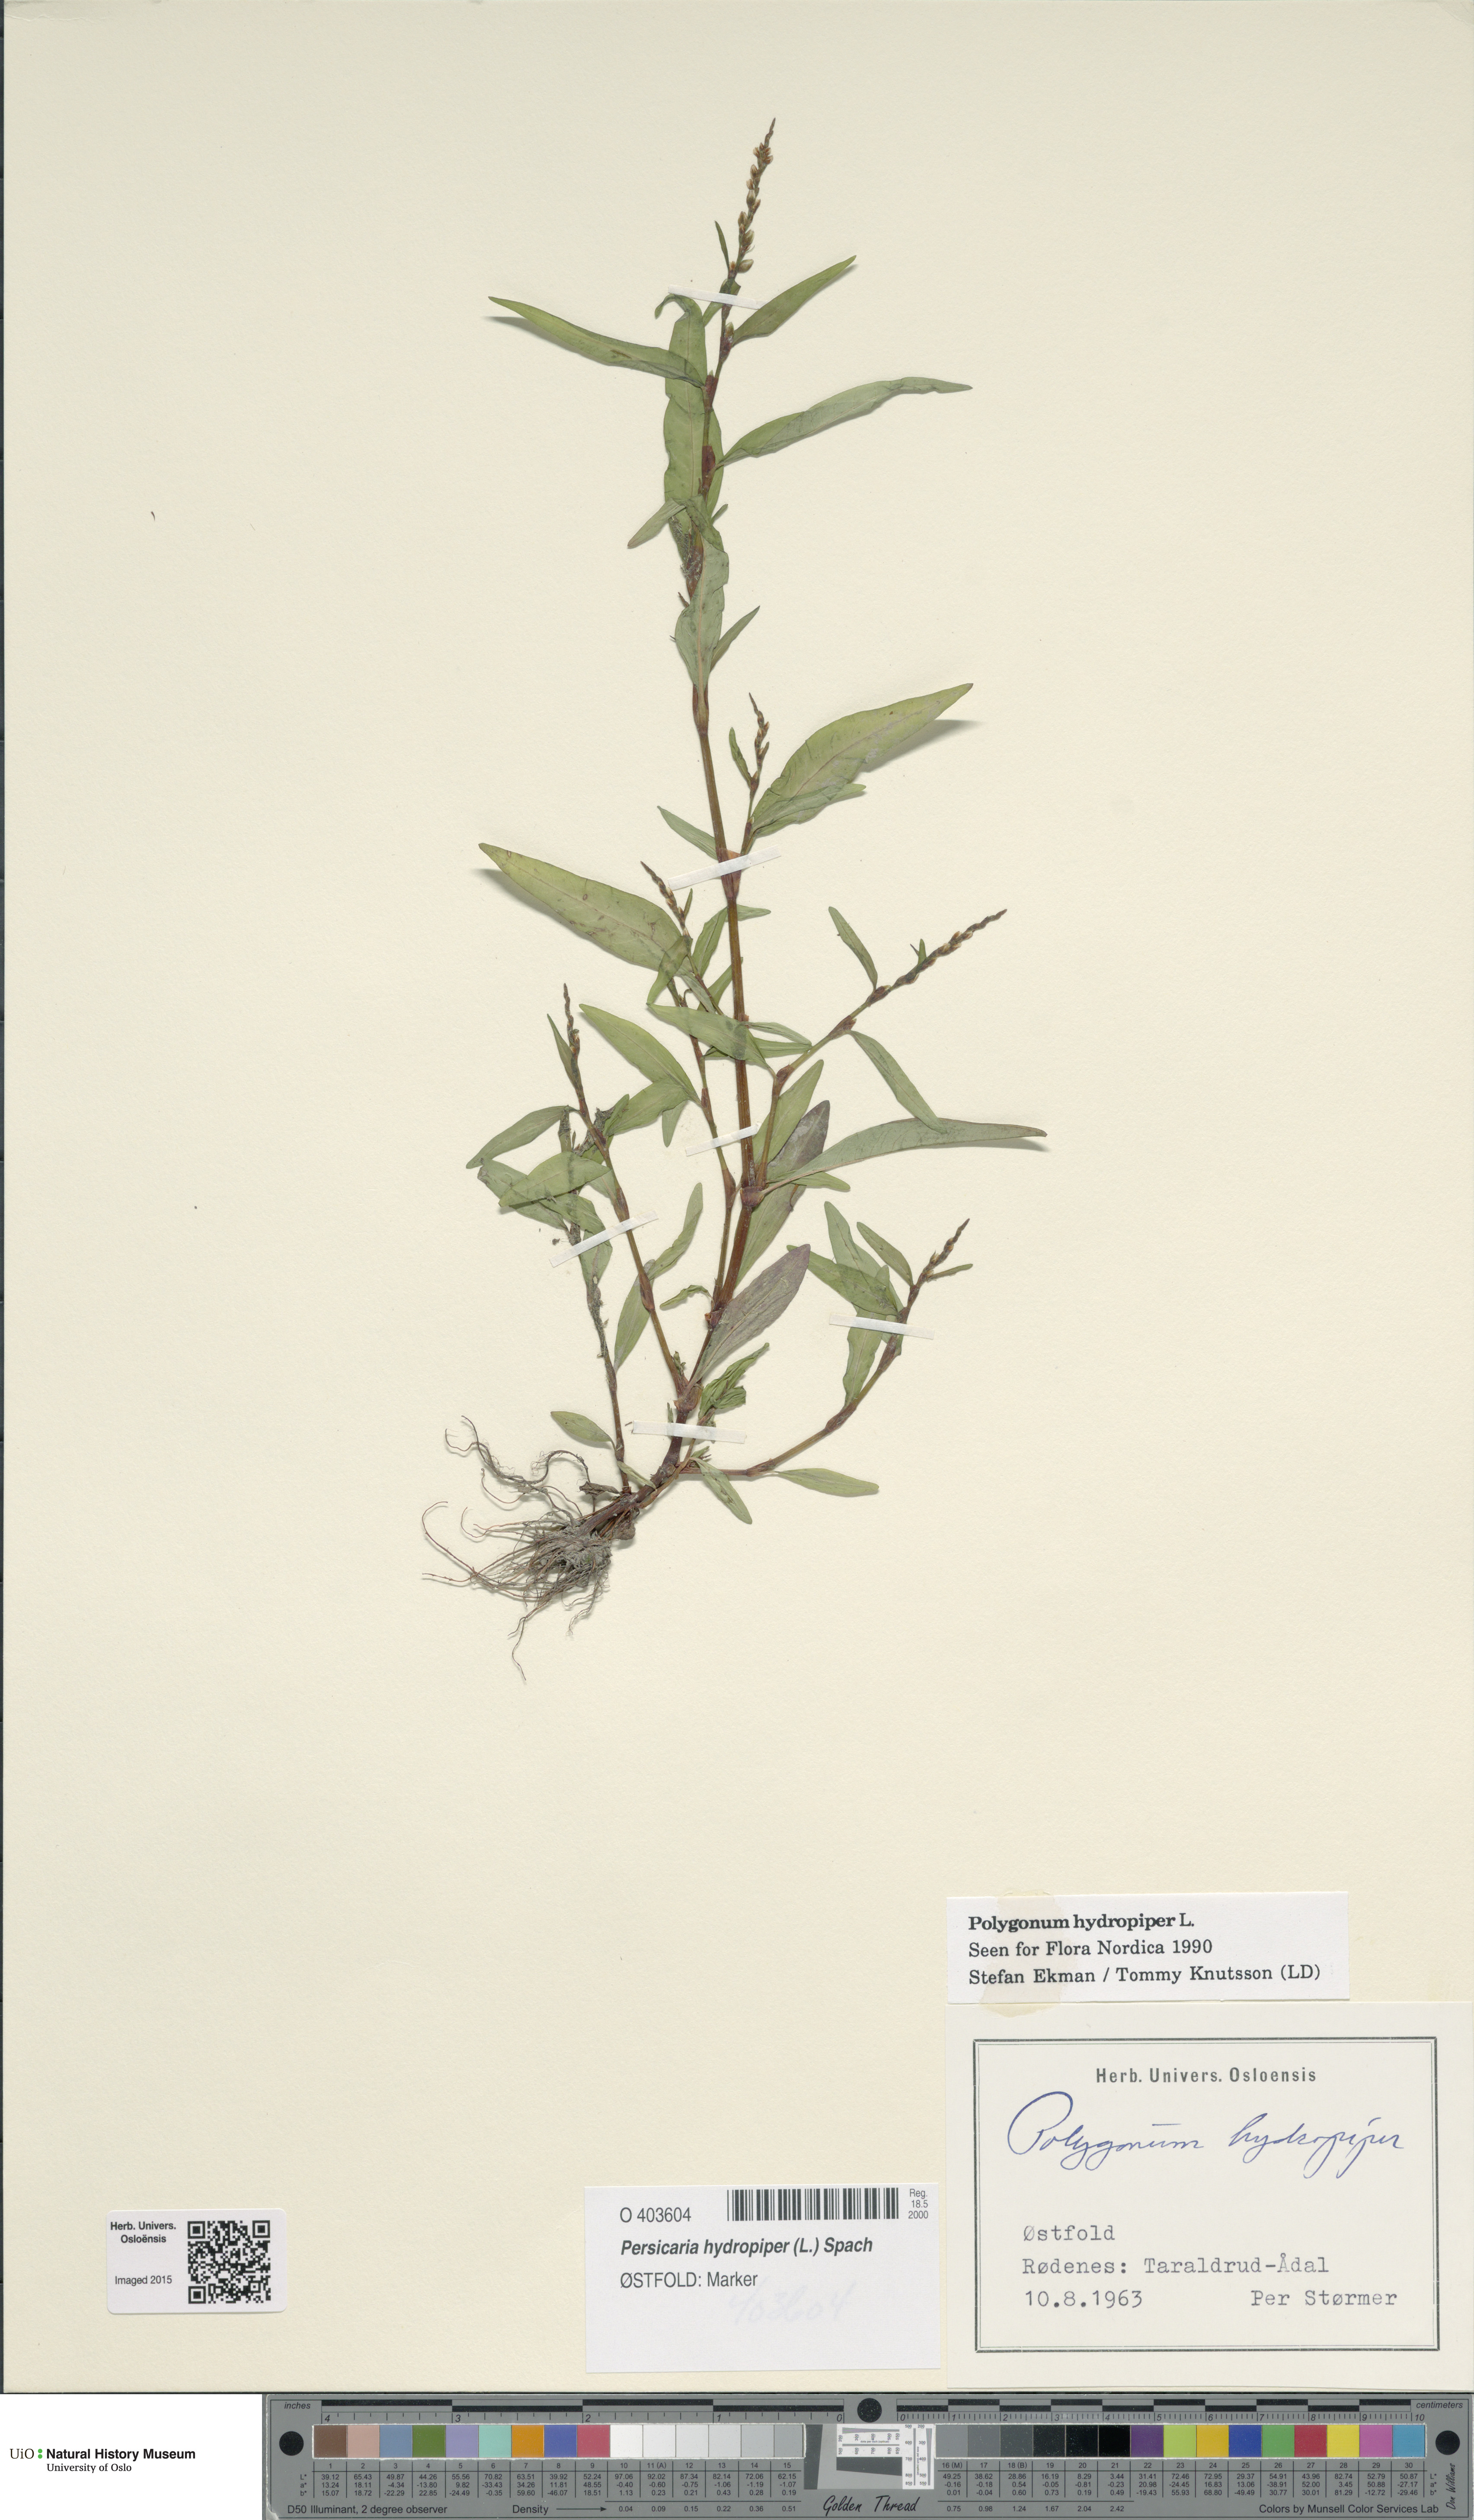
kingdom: Plantae
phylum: Tracheophyta
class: Magnoliopsida
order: Caryophyllales
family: Polygonaceae
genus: Persicaria
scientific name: Persicaria hydropiper
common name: Water-pepper
